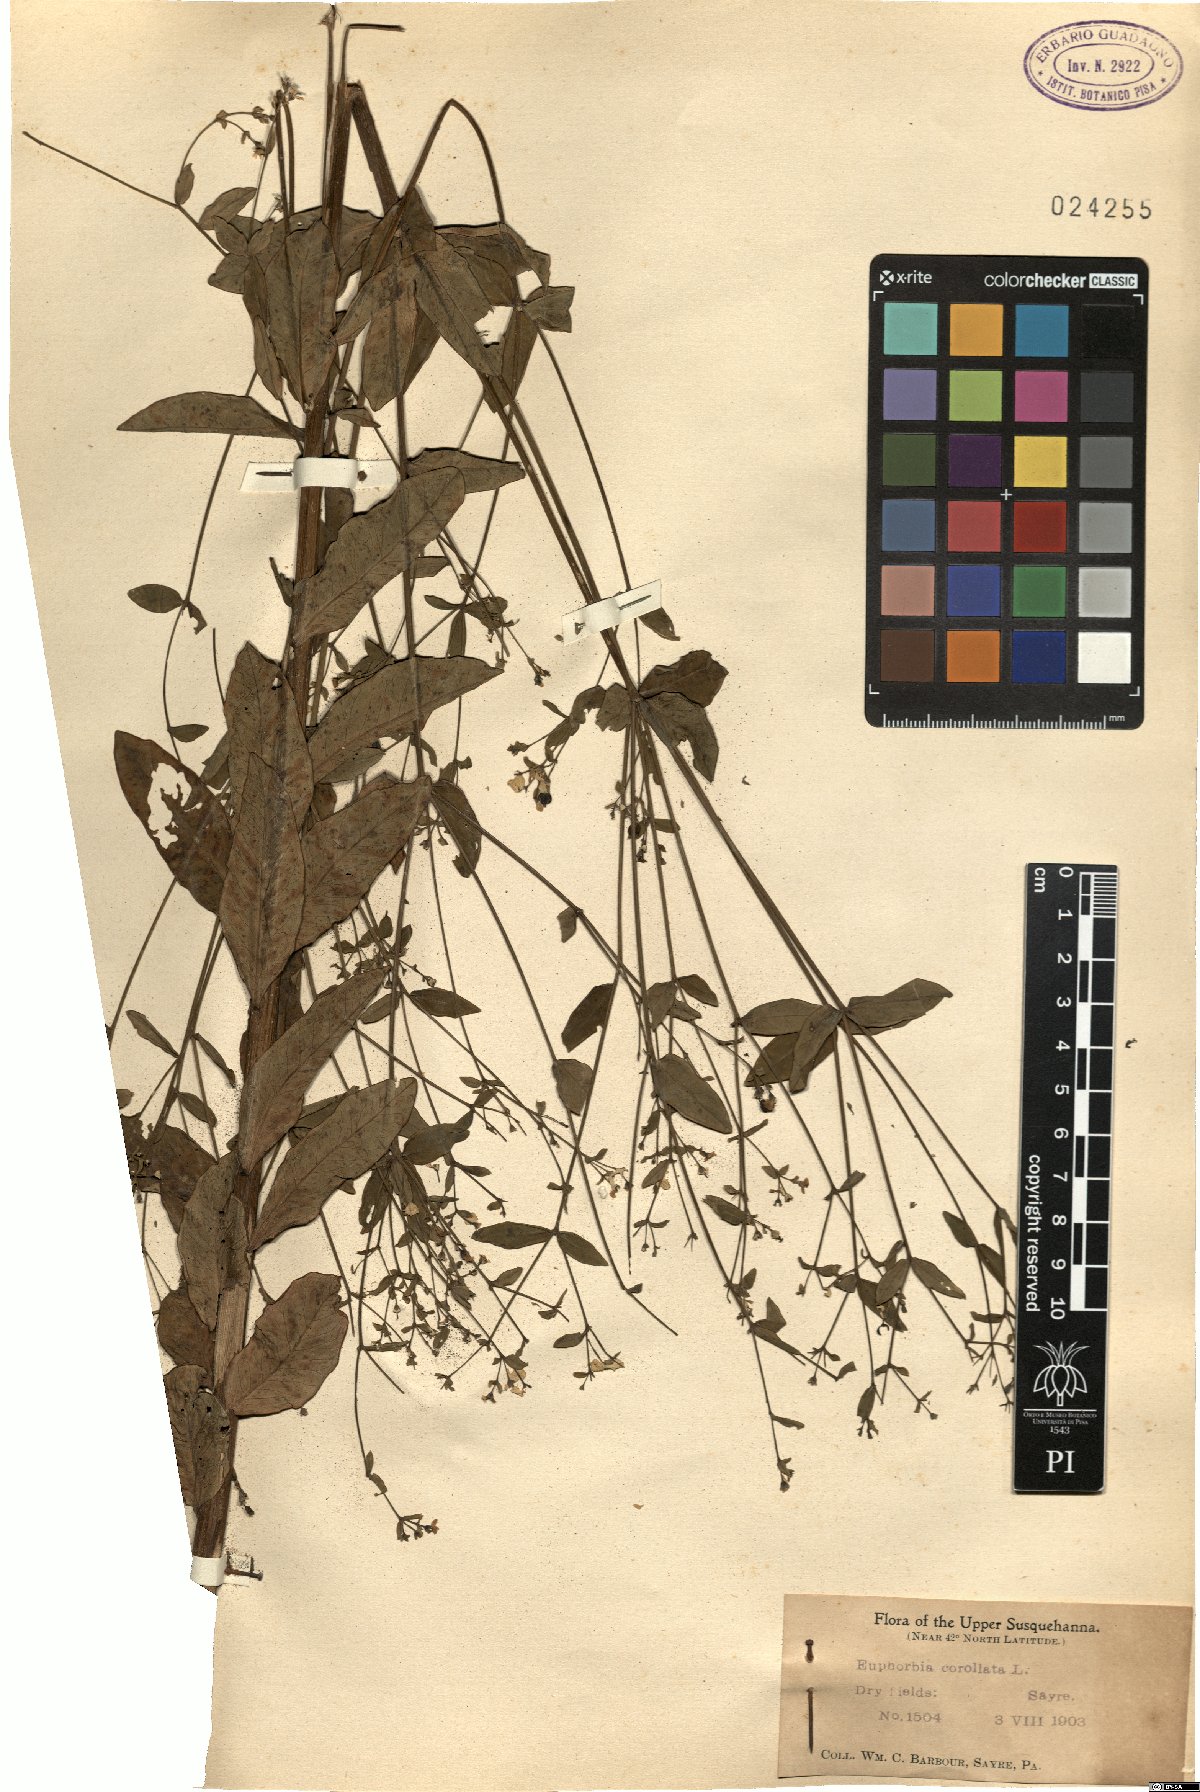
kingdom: Plantae
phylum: Tracheophyta
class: Magnoliopsida
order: Malpighiales
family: Euphorbiaceae
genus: Euphorbia
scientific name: Euphorbia corollata
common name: Flowering spurge
